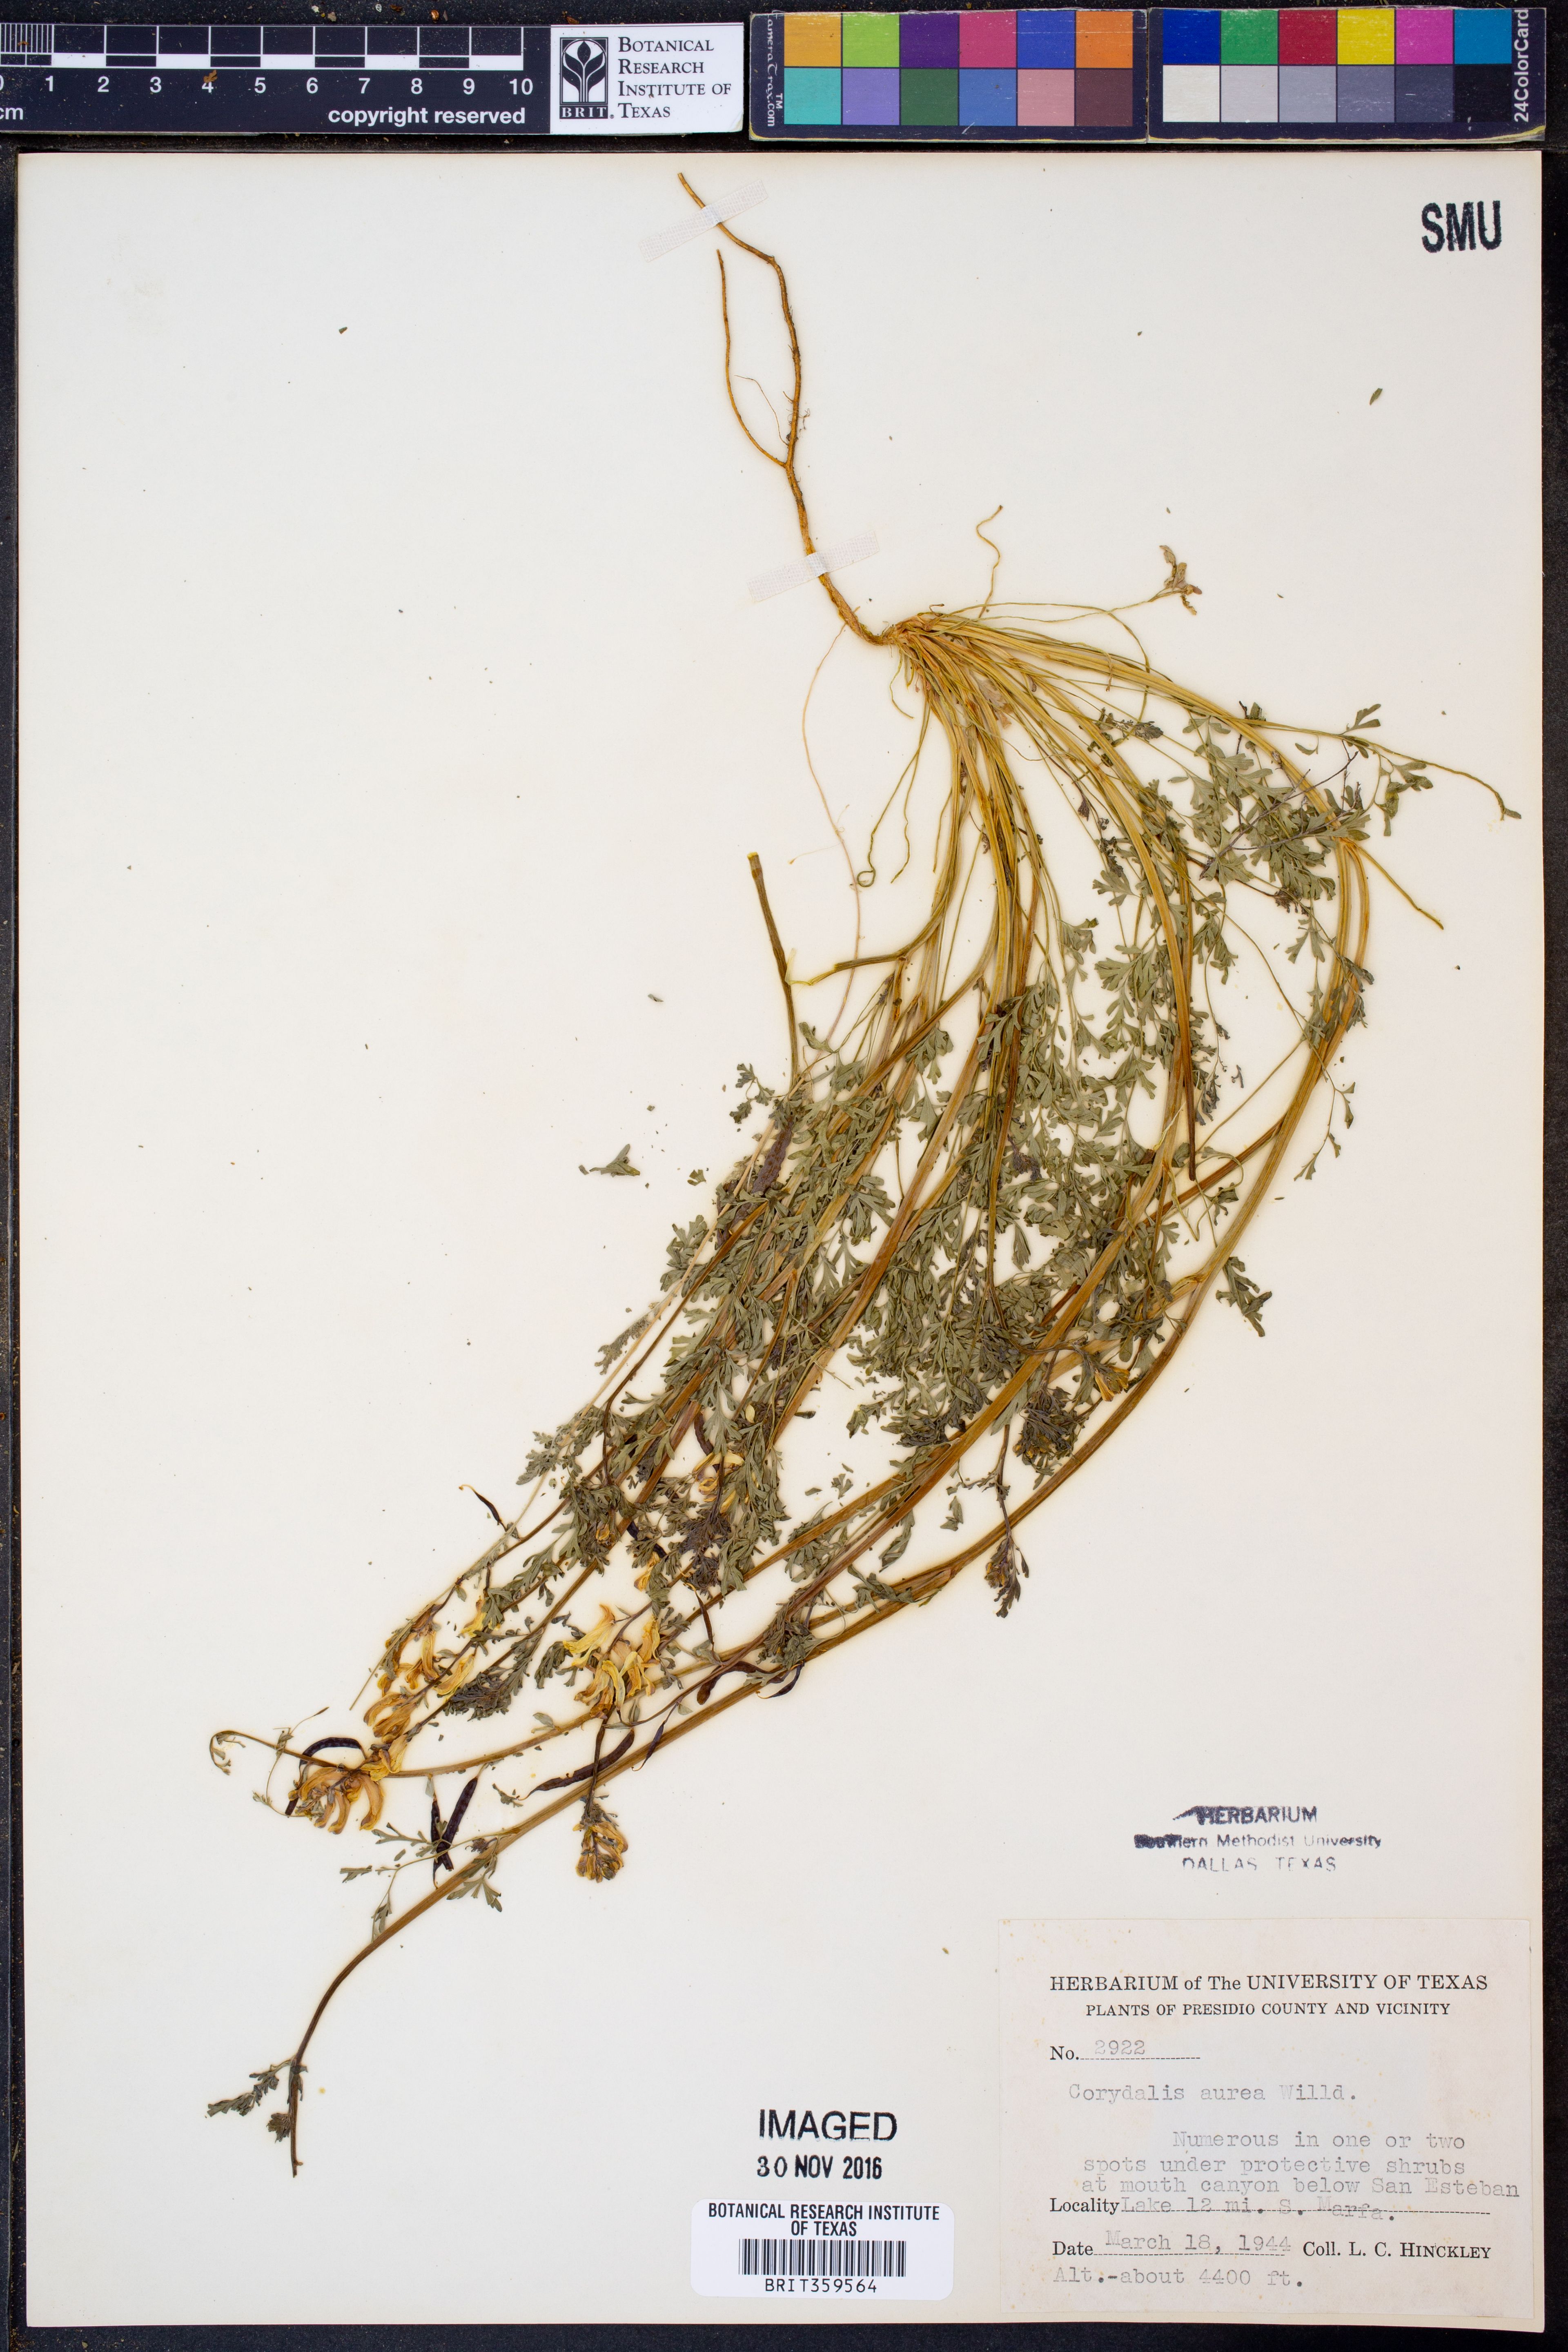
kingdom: Plantae
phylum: Tracheophyta
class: Magnoliopsida
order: Ranunculales
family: Papaveraceae
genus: Corydalis
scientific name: Corydalis aurea
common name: Golden corydalis
